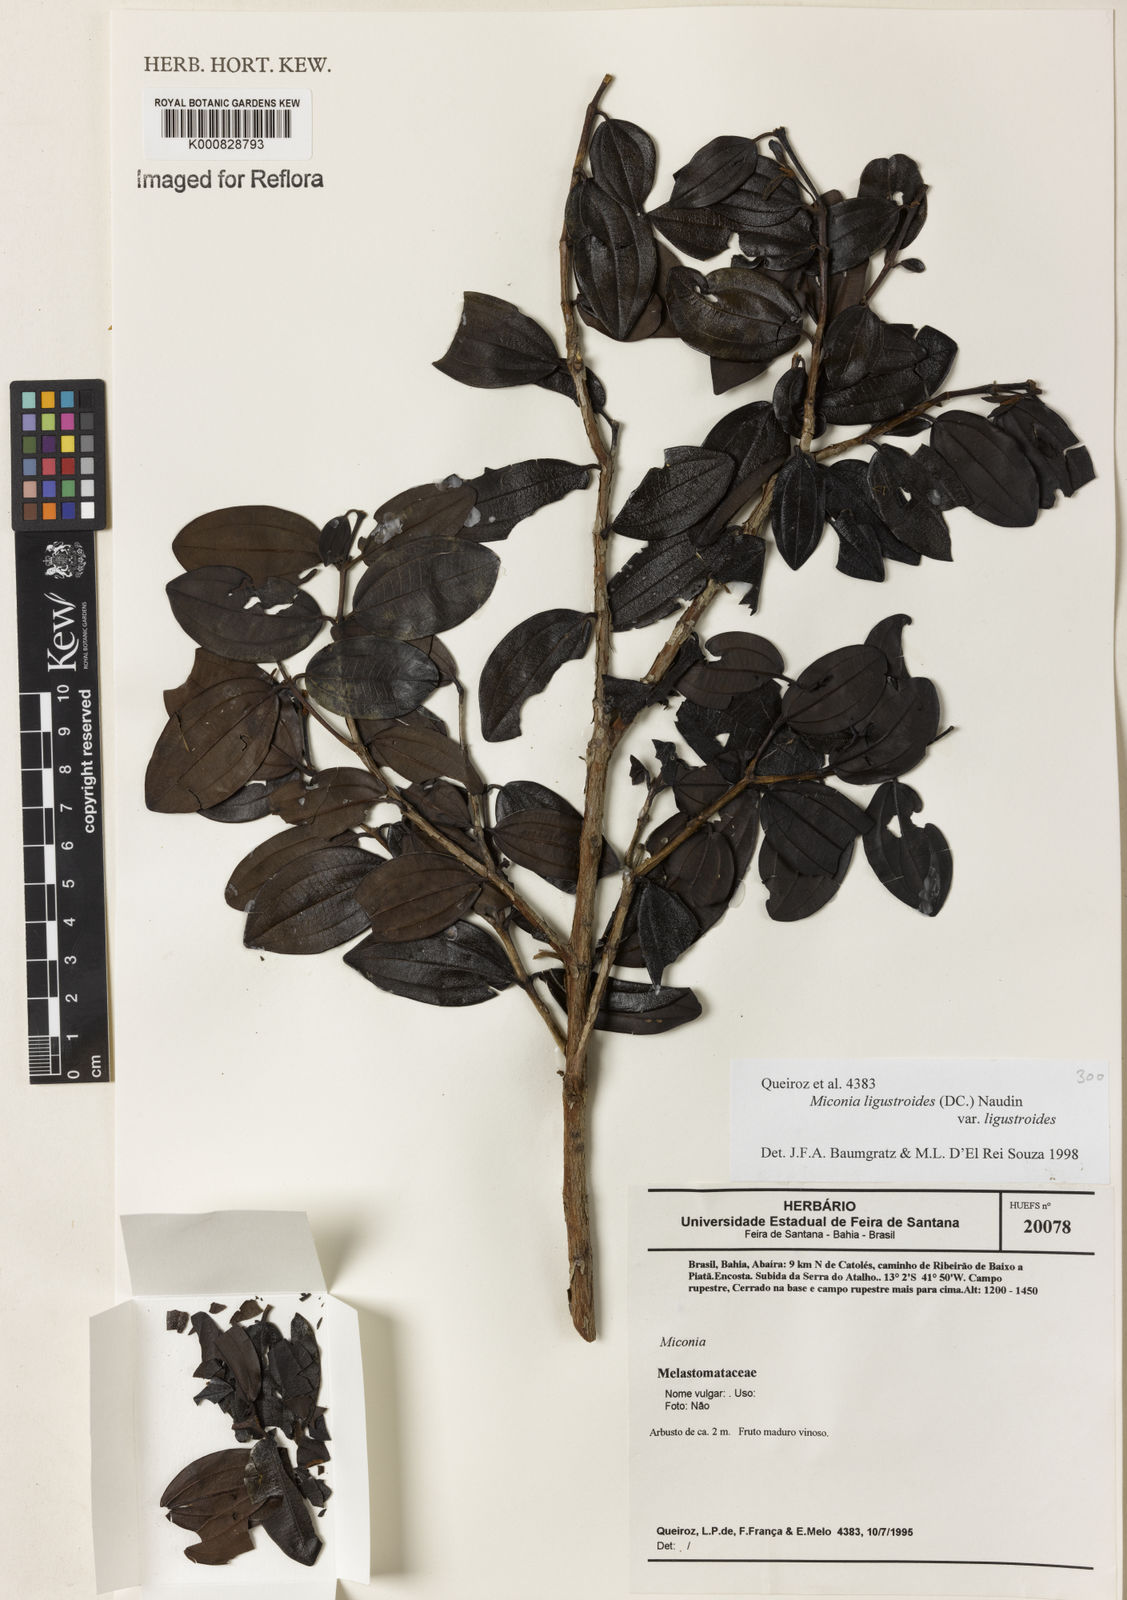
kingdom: Plantae
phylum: Tracheophyta
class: Magnoliopsida
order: Myrtales
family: Melastomataceae
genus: Miconia
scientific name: Miconia ligustroides
